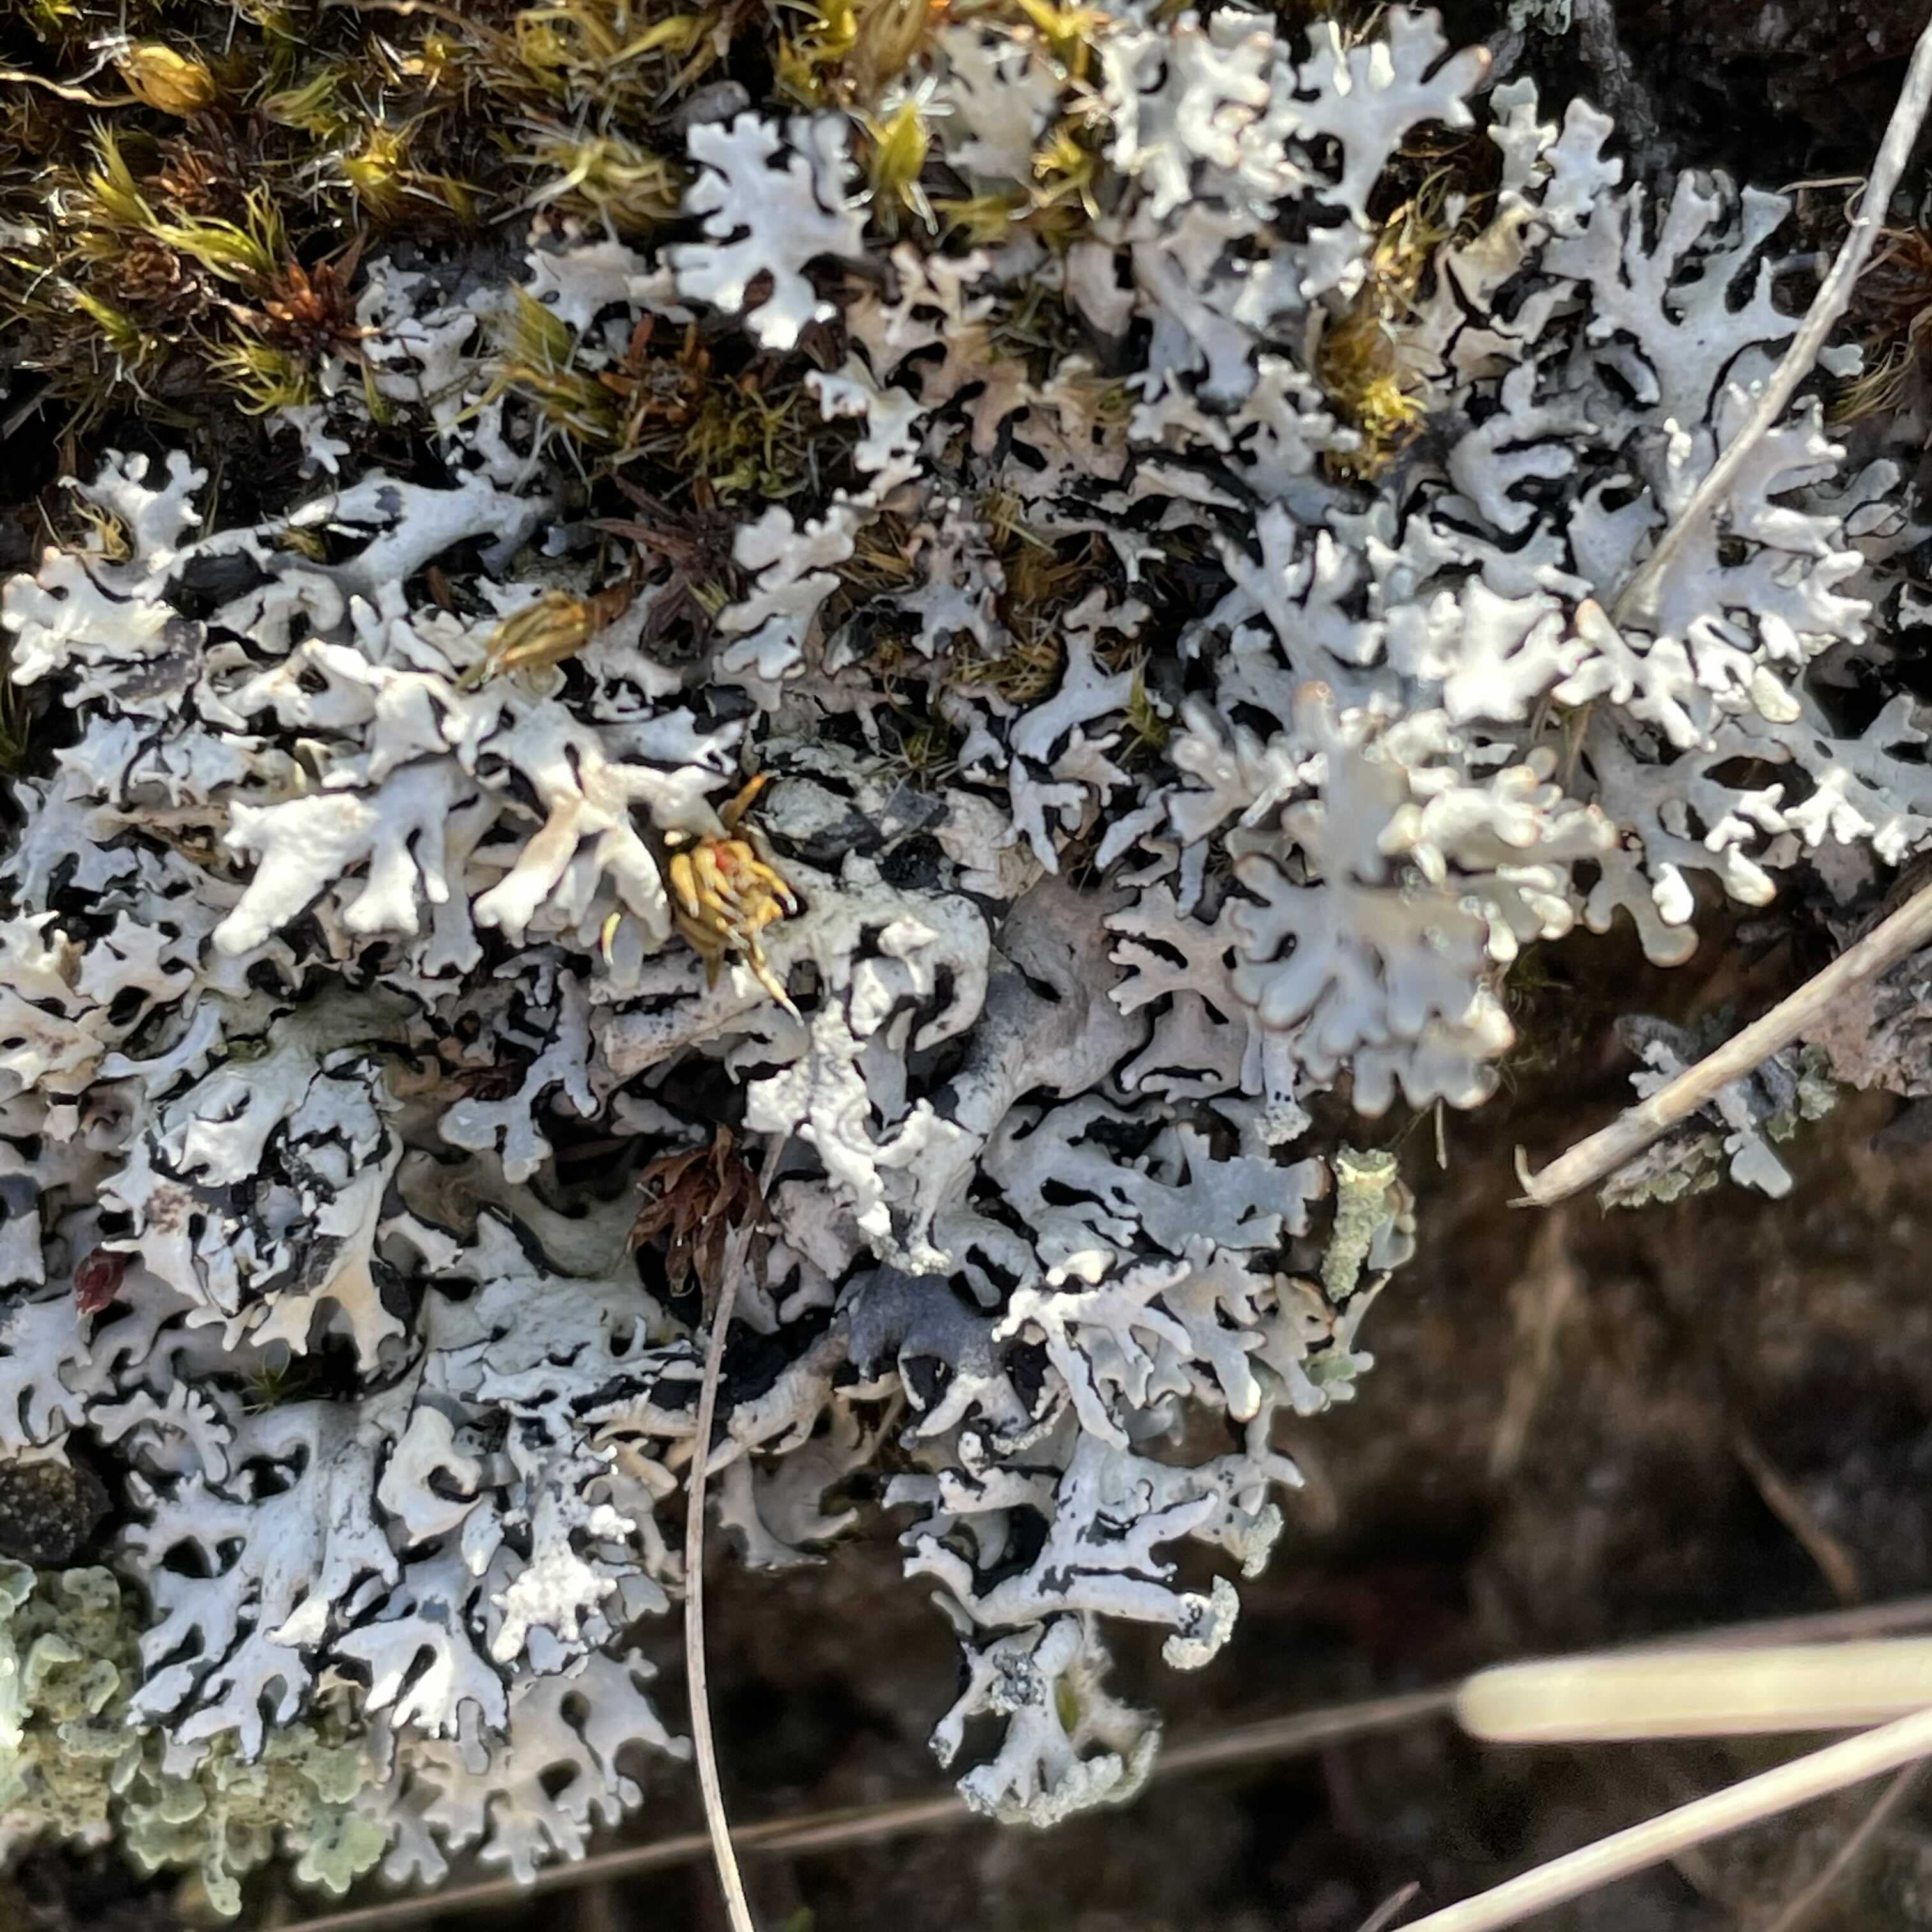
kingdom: Fungi
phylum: Ascomycota
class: Lecanoromycetes
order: Lecanorales
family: Parmeliaceae
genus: Hypogymnia
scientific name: Hypogymnia physodes
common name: almindelig kvistlav
